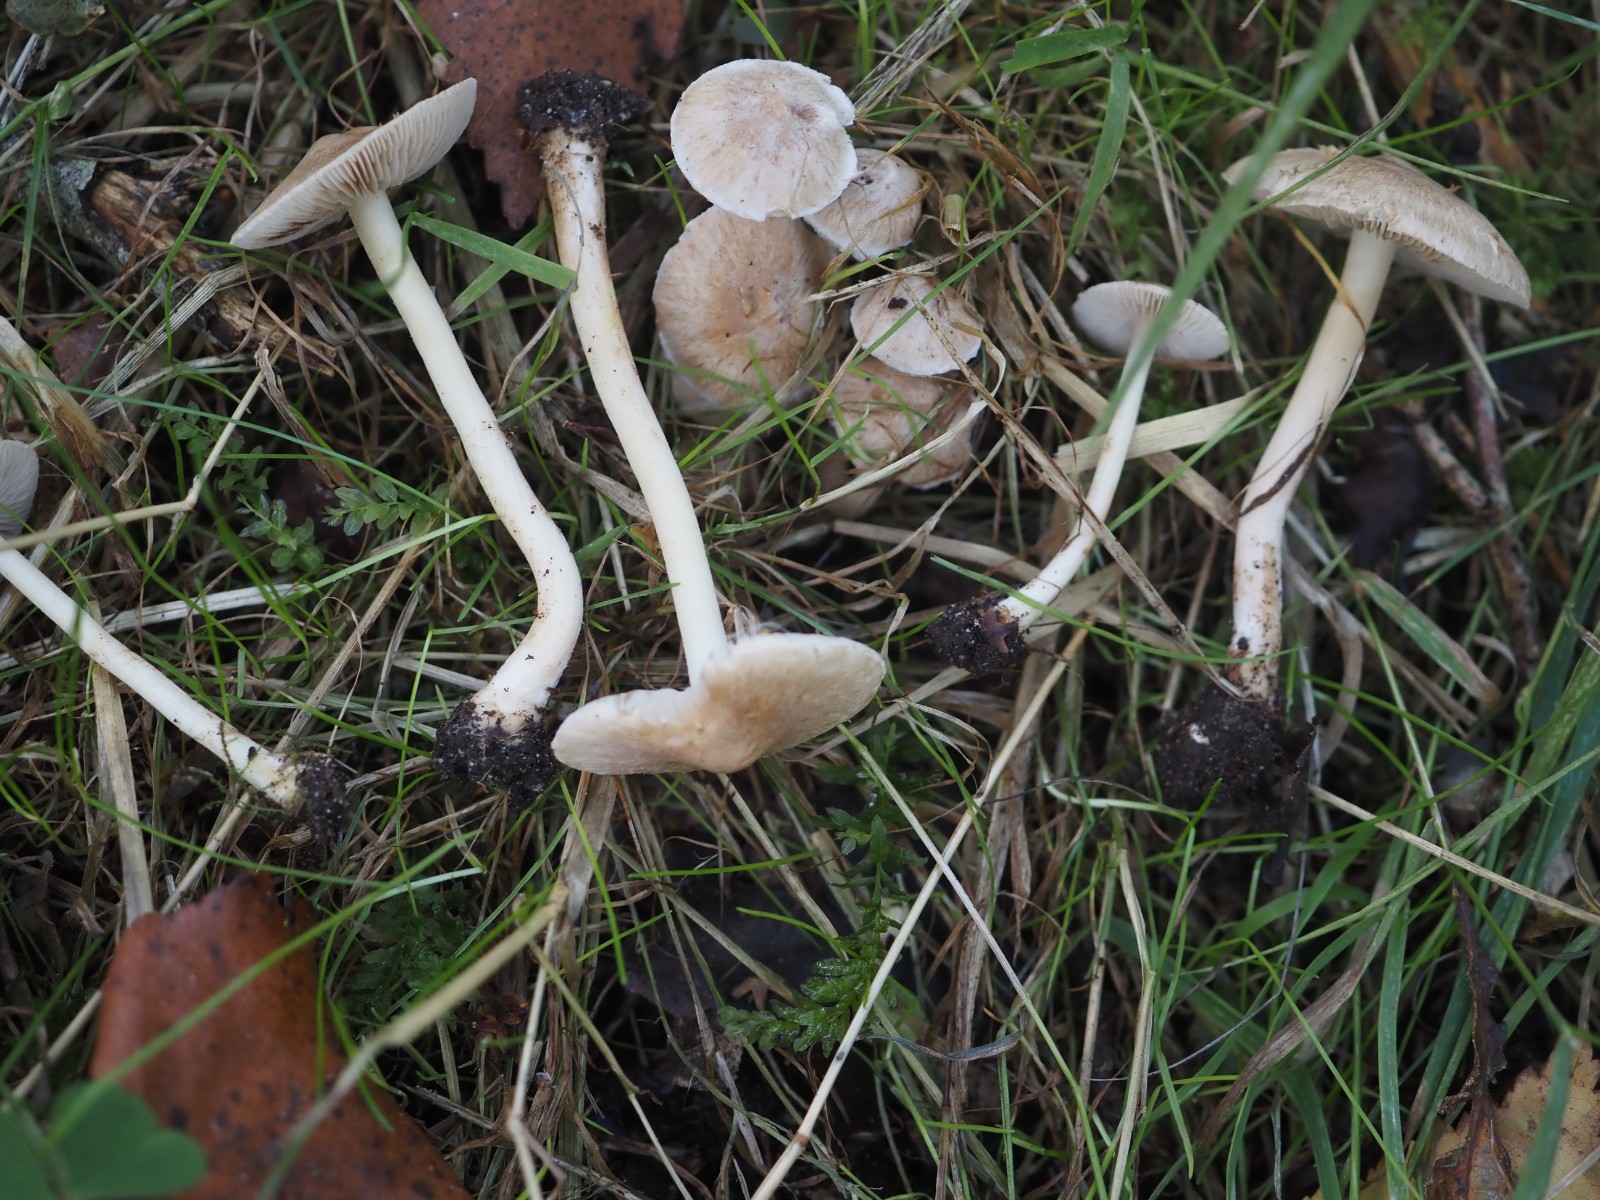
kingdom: Fungi
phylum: Basidiomycota
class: Agaricomycetes
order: Agaricales
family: Inocybaceae
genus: Inocybe
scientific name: Inocybe sindonia
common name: bleg trævlhat
